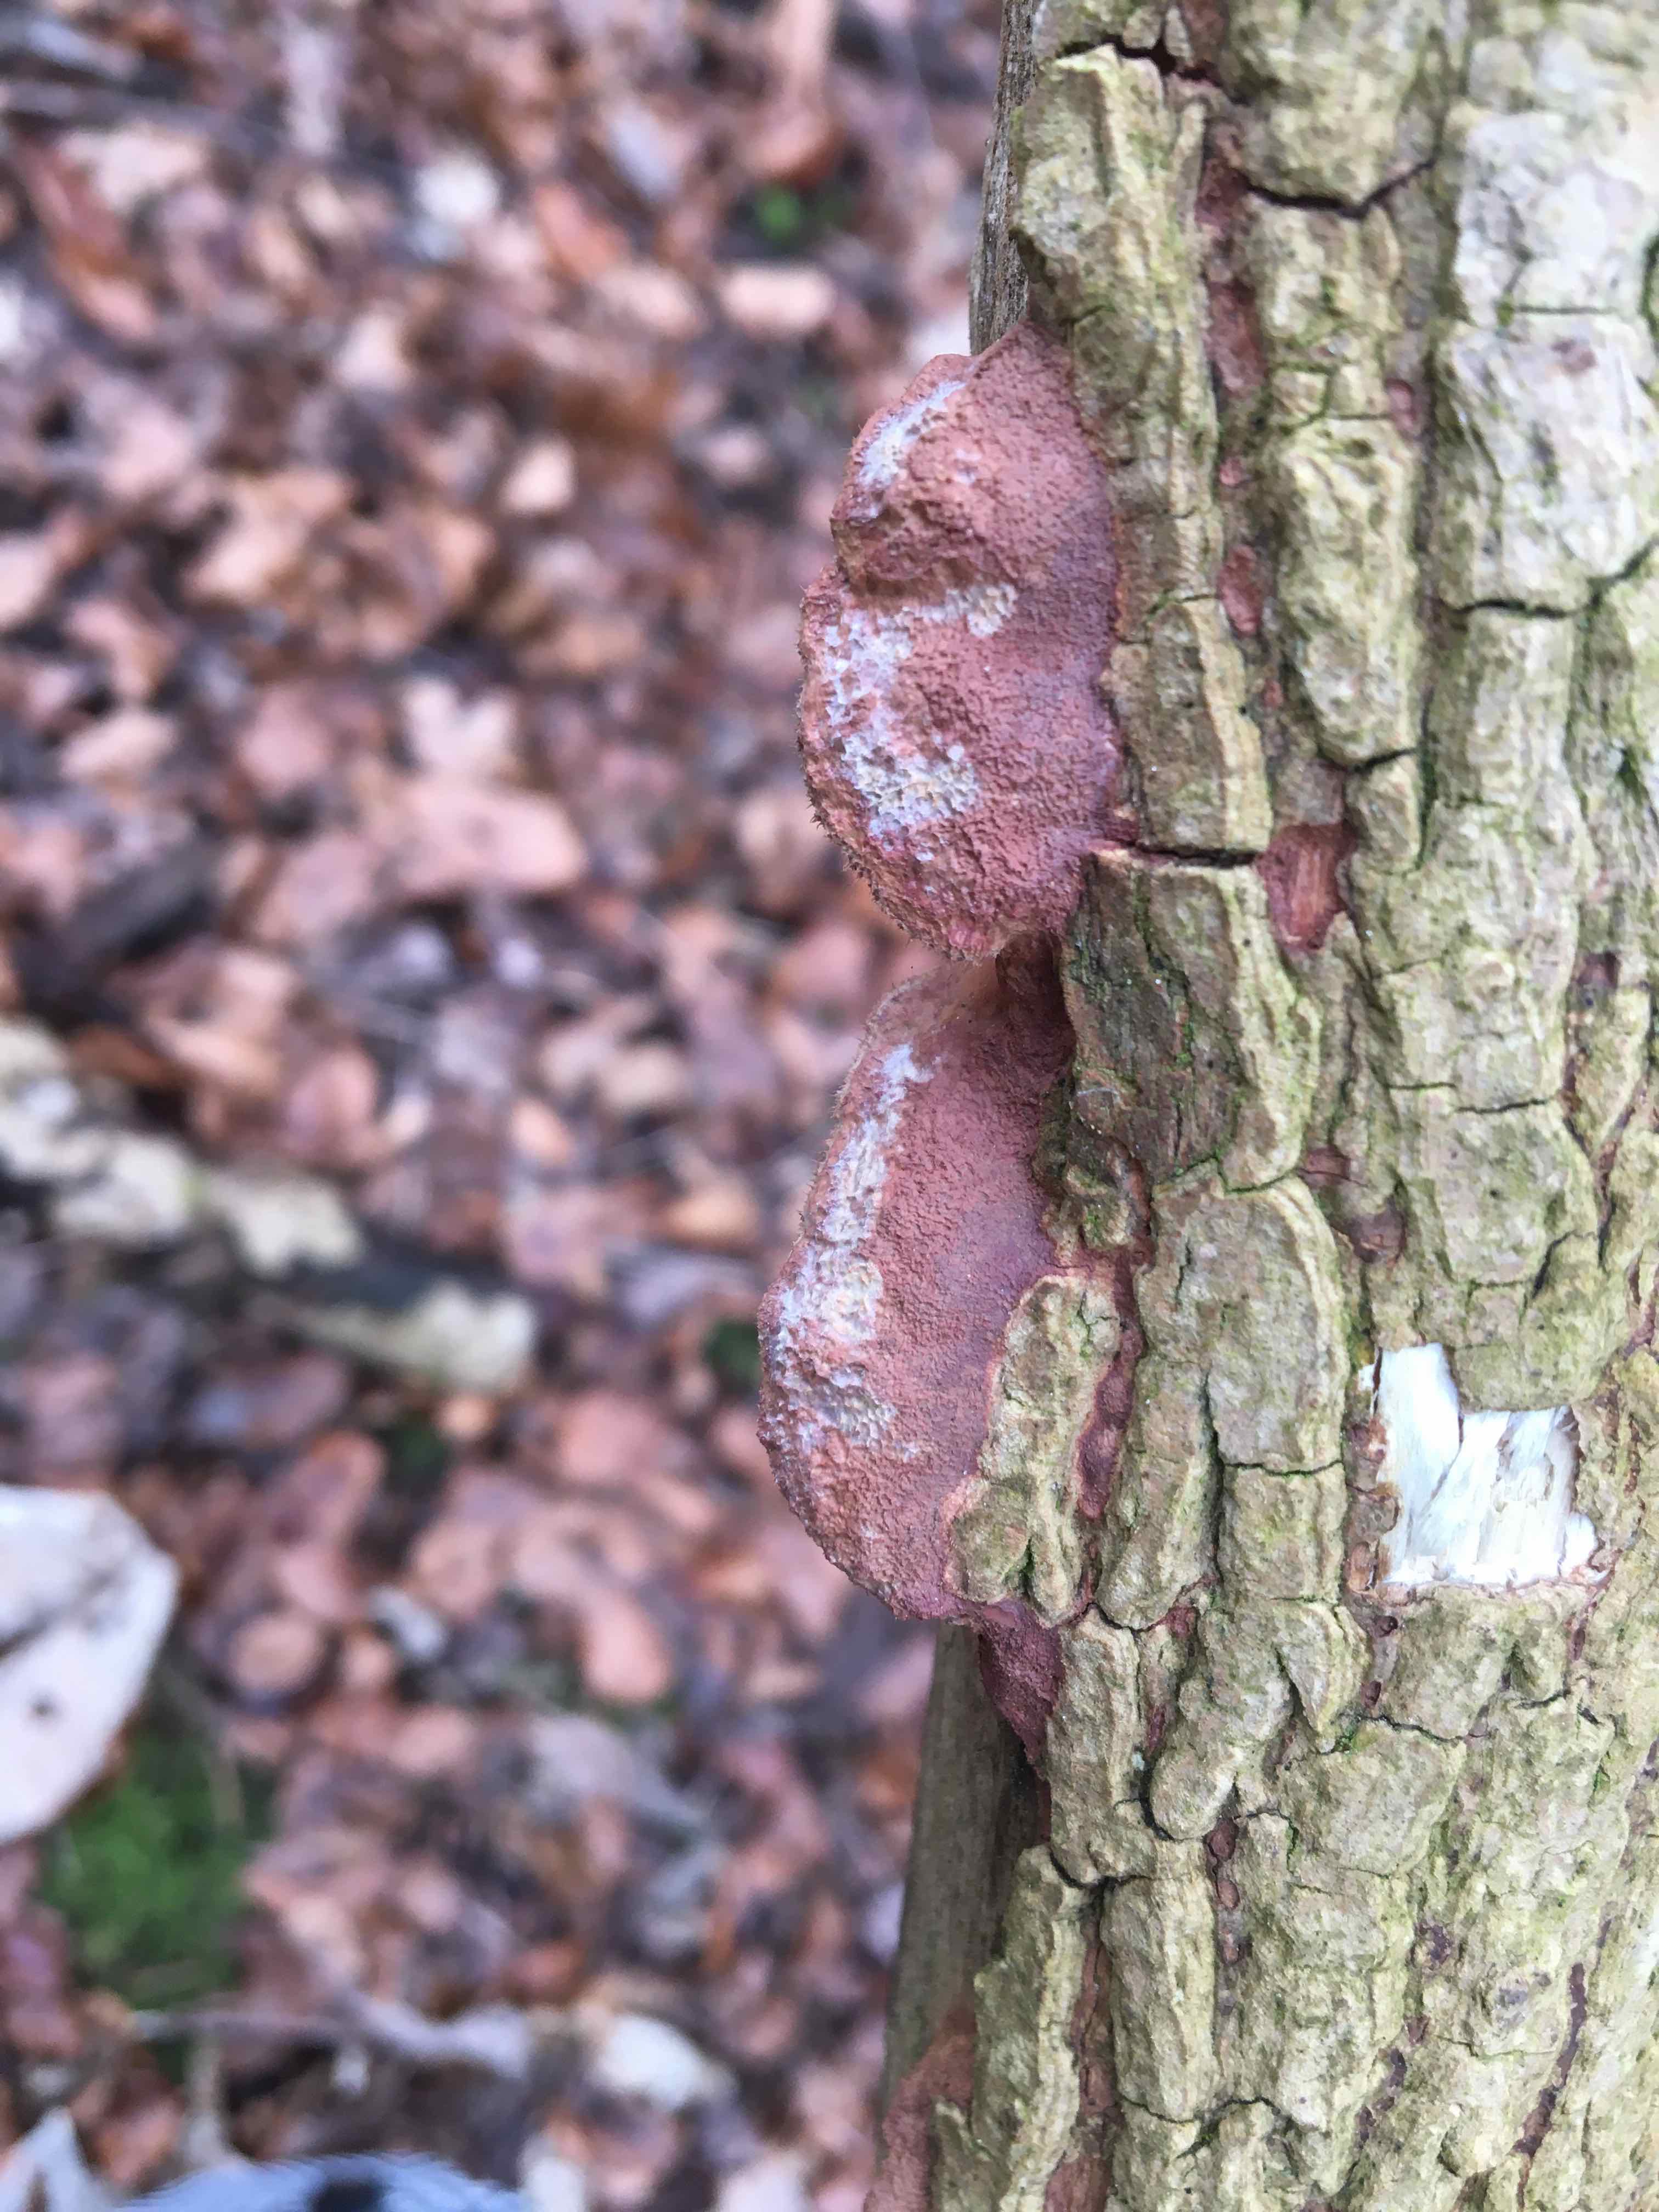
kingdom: Fungi
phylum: Basidiomycota
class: Agaricomycetes
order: Polyporales
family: Phanerochaetaceae
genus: Hapalopilus
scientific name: Hapalopilus rutilans
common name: rødlig okkerporesvamp
